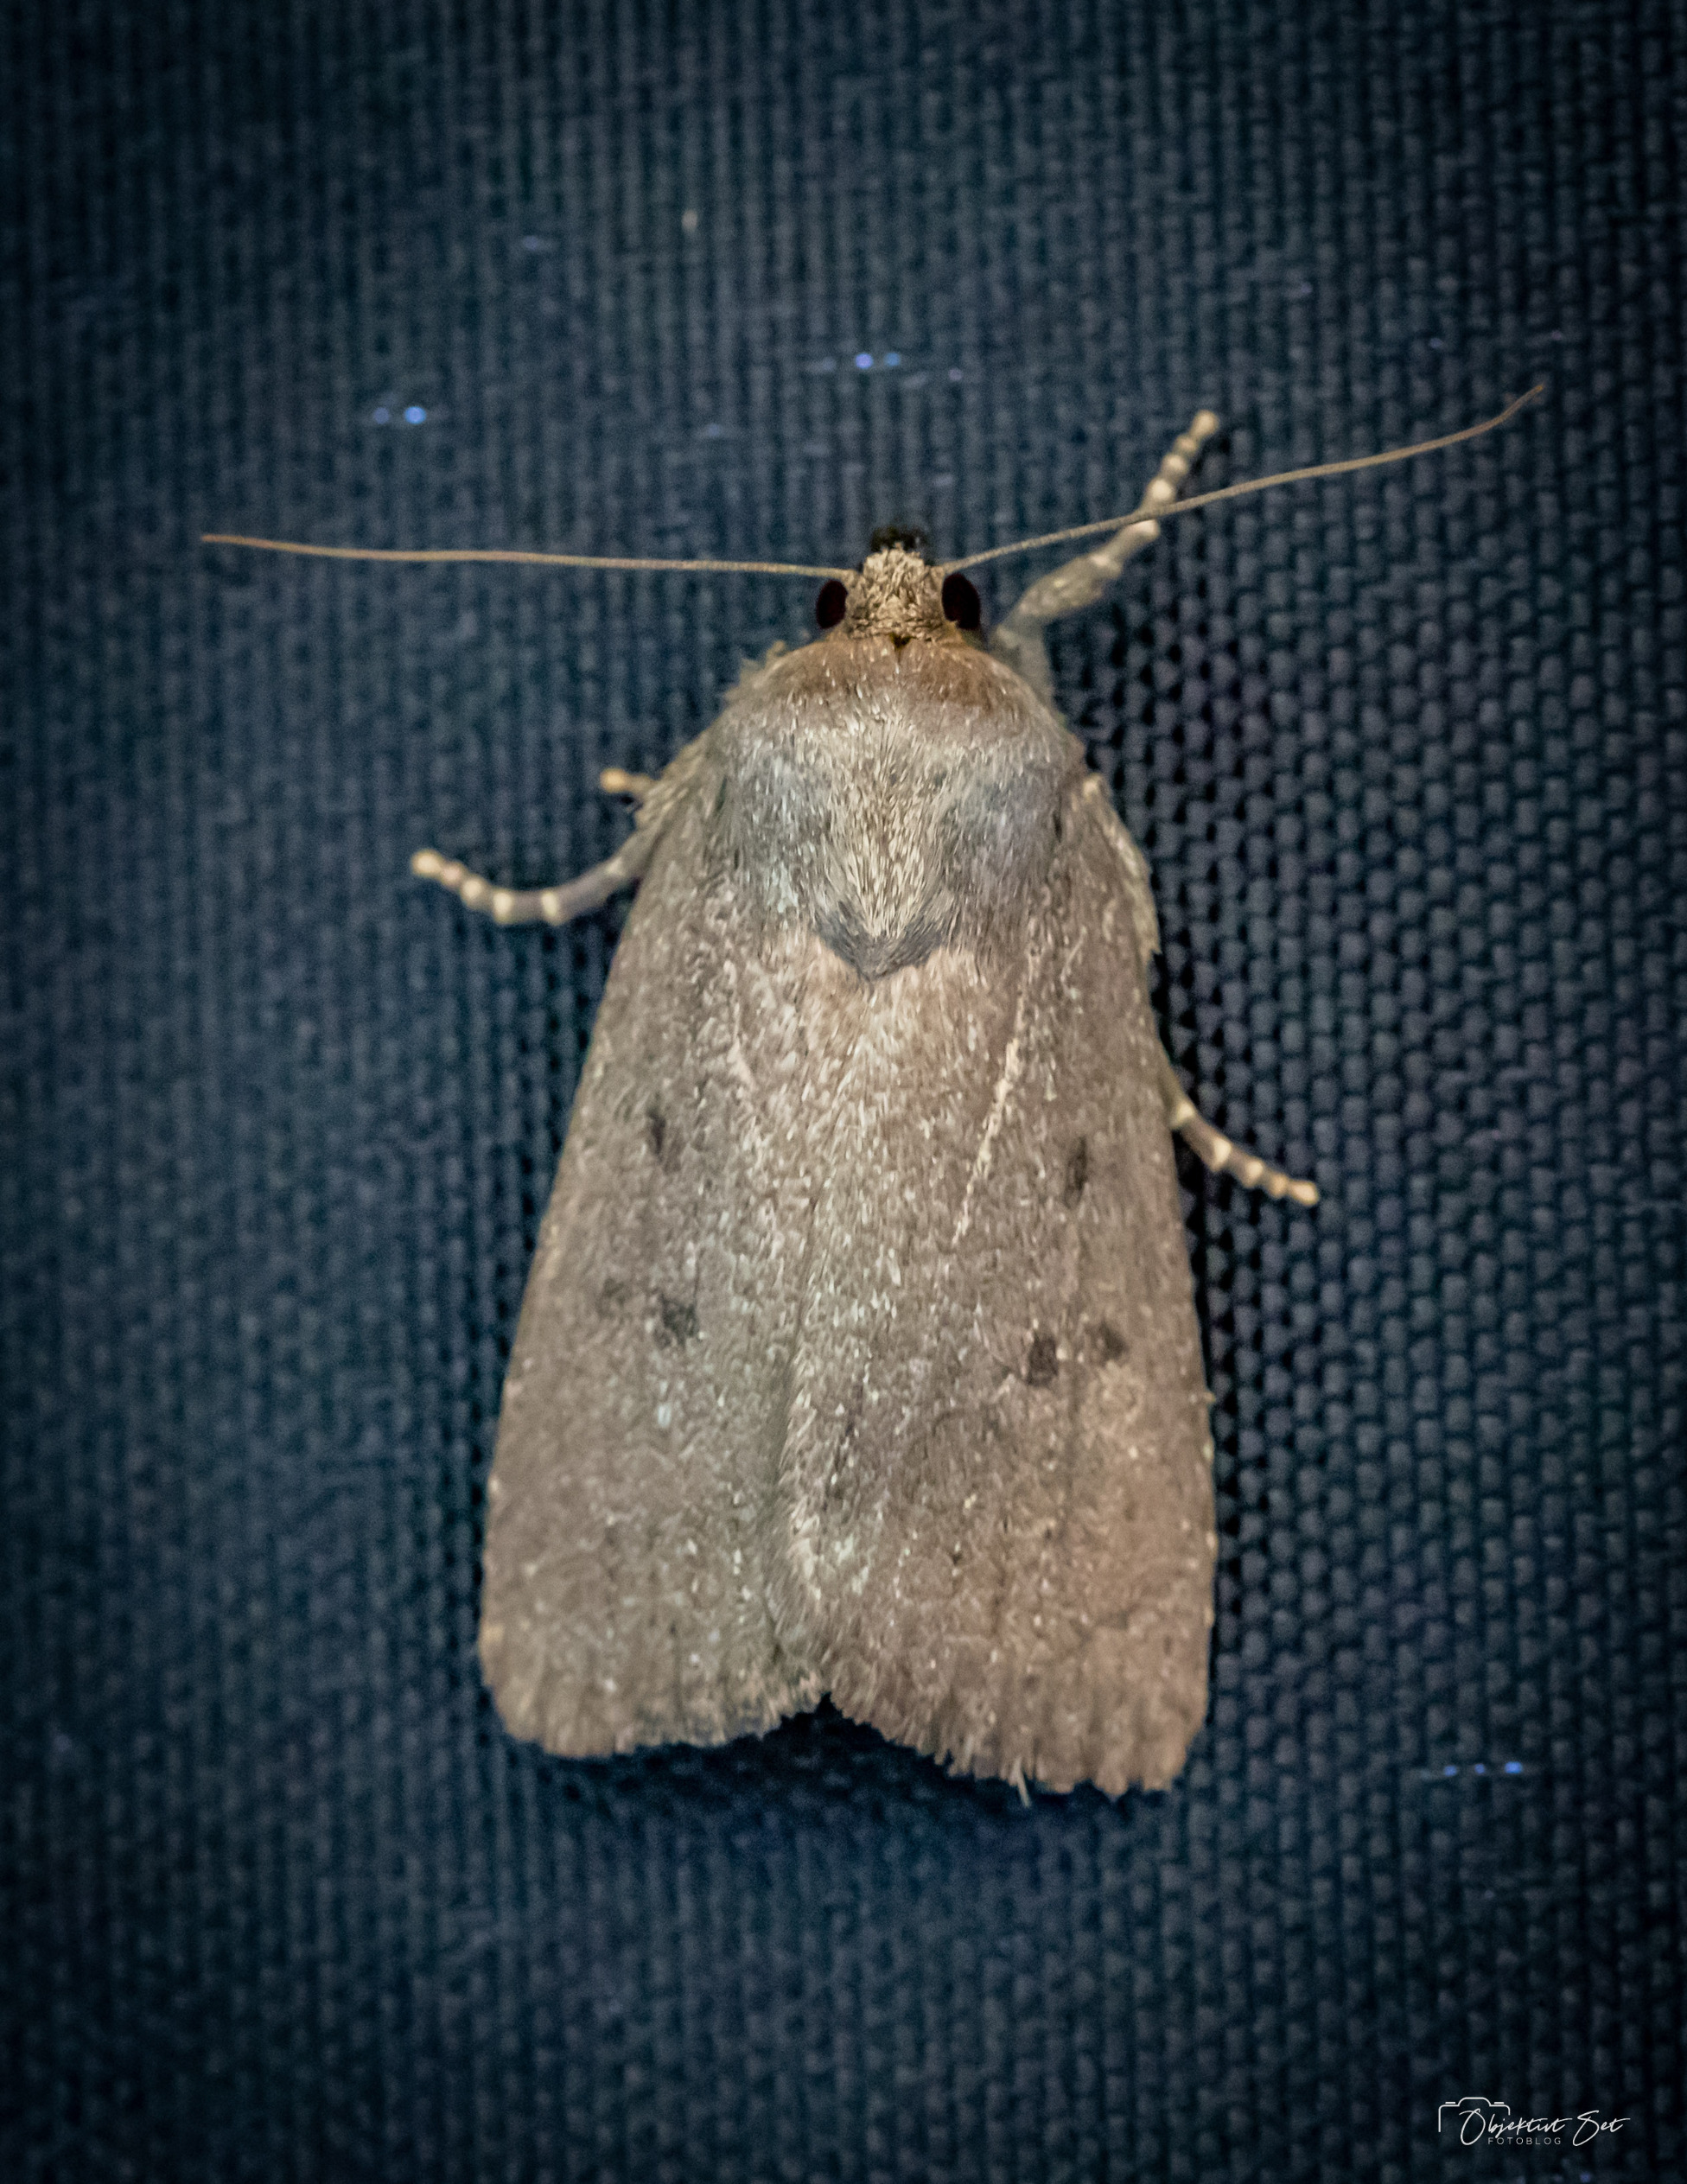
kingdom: Animalia
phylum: Arthropoda
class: Insecta
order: Lepidoptera
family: Noctuidae
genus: Amphipyra
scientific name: Amphipyra tragopoginis
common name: Blyantsugle
